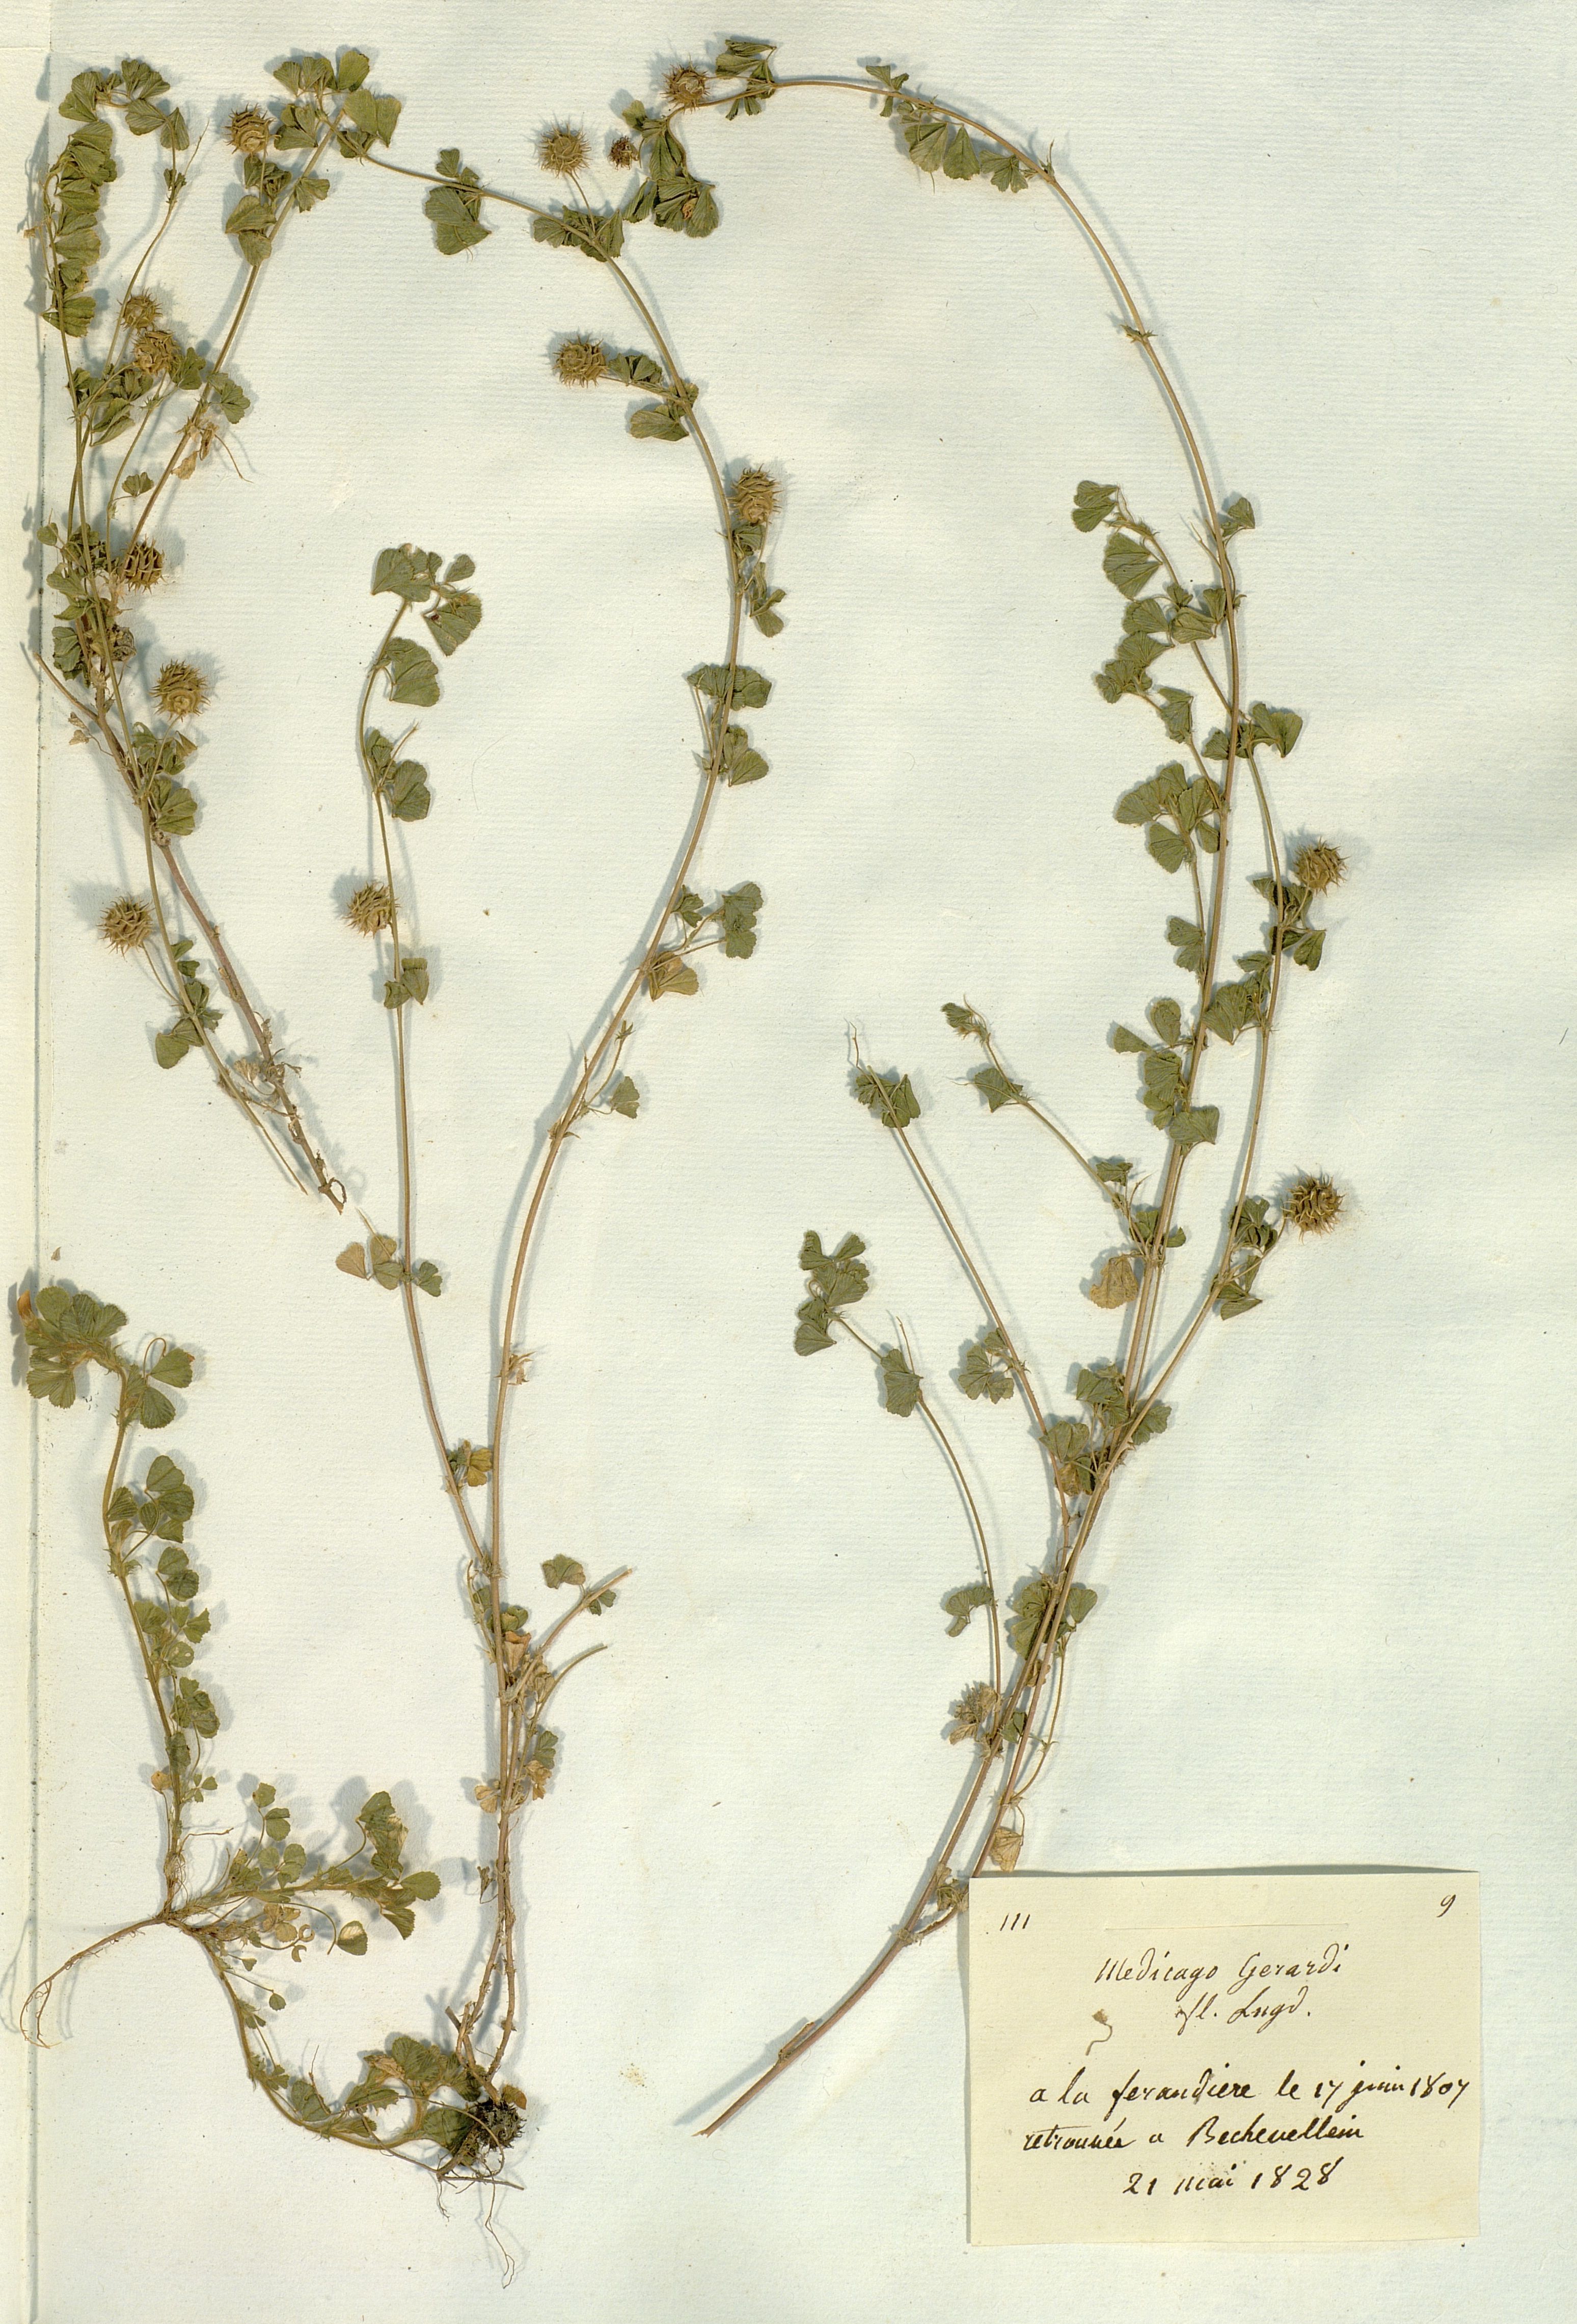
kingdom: Plantae
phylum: Tracheophyta
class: Magnoliopsida
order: Fabales
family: Fabaceae
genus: Medicago
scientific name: Medicago rigidula
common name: Tifton medic
